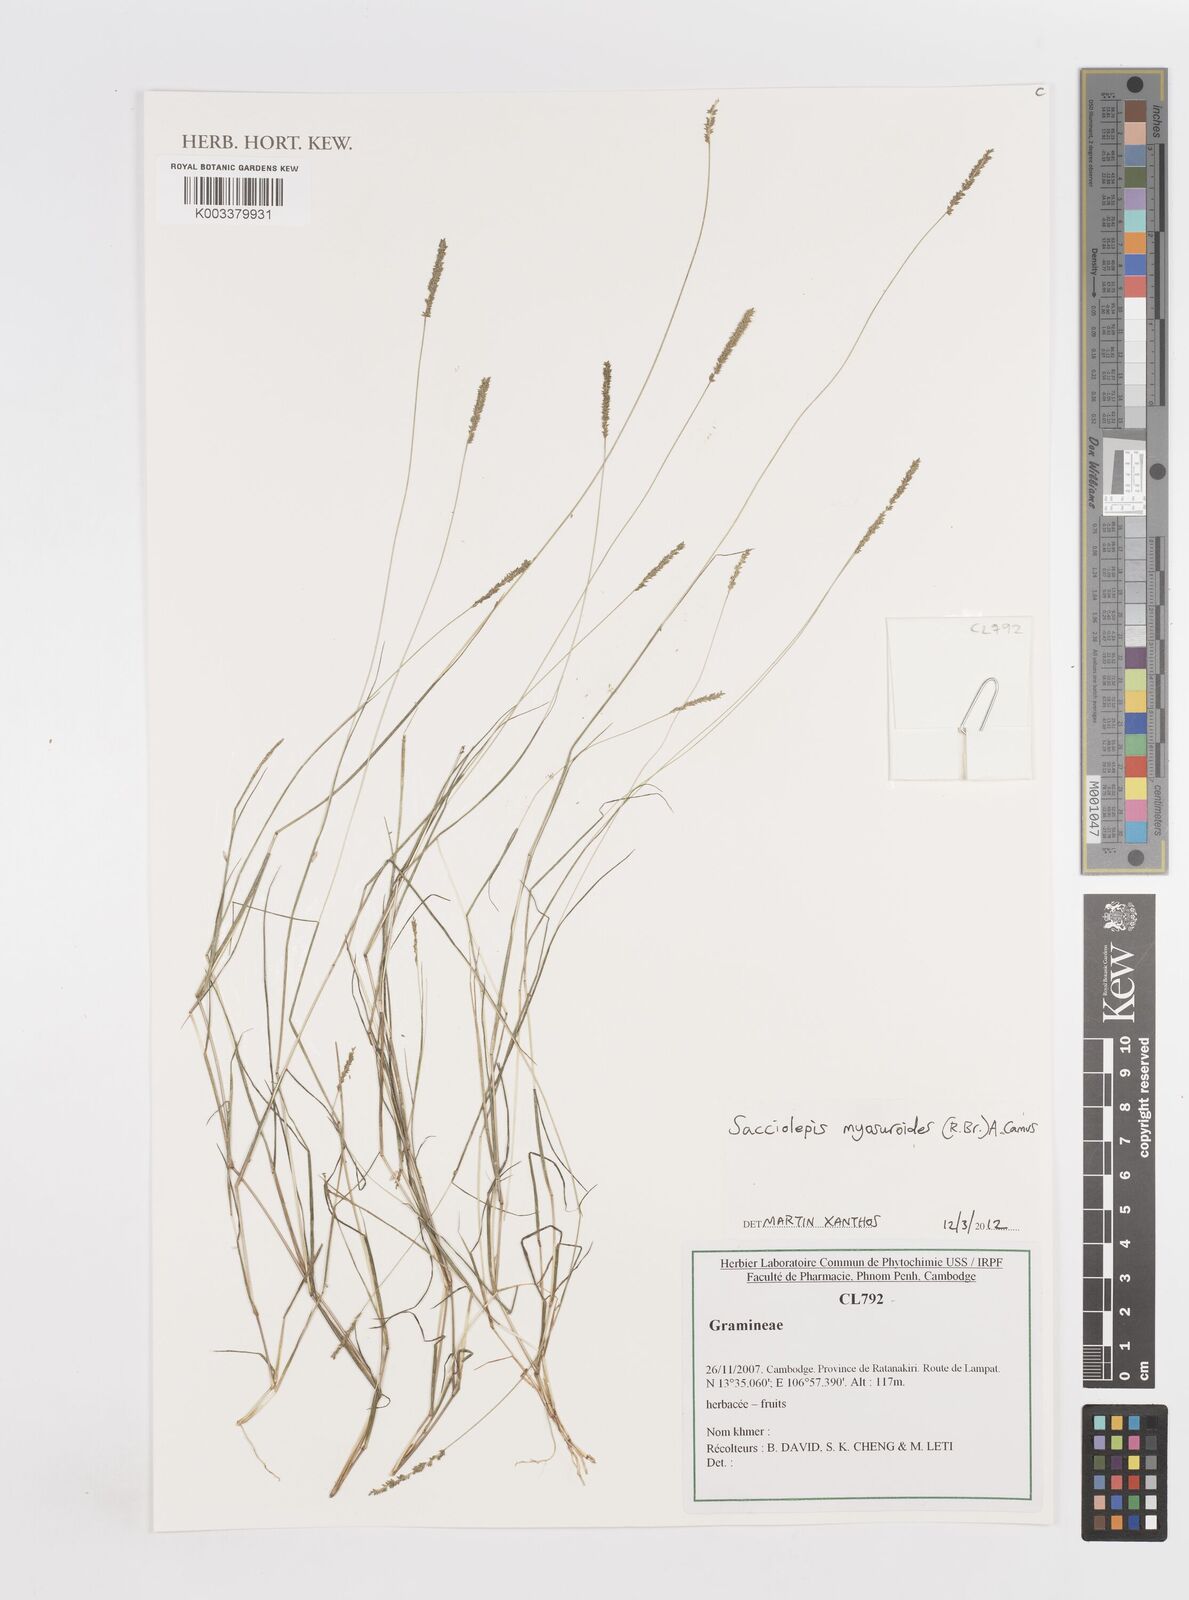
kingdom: Plantae
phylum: Tracheophyta
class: Liliopsida
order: Poales
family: Poaceae
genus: Sacciolepis
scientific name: Sacciolepis myosuroides
